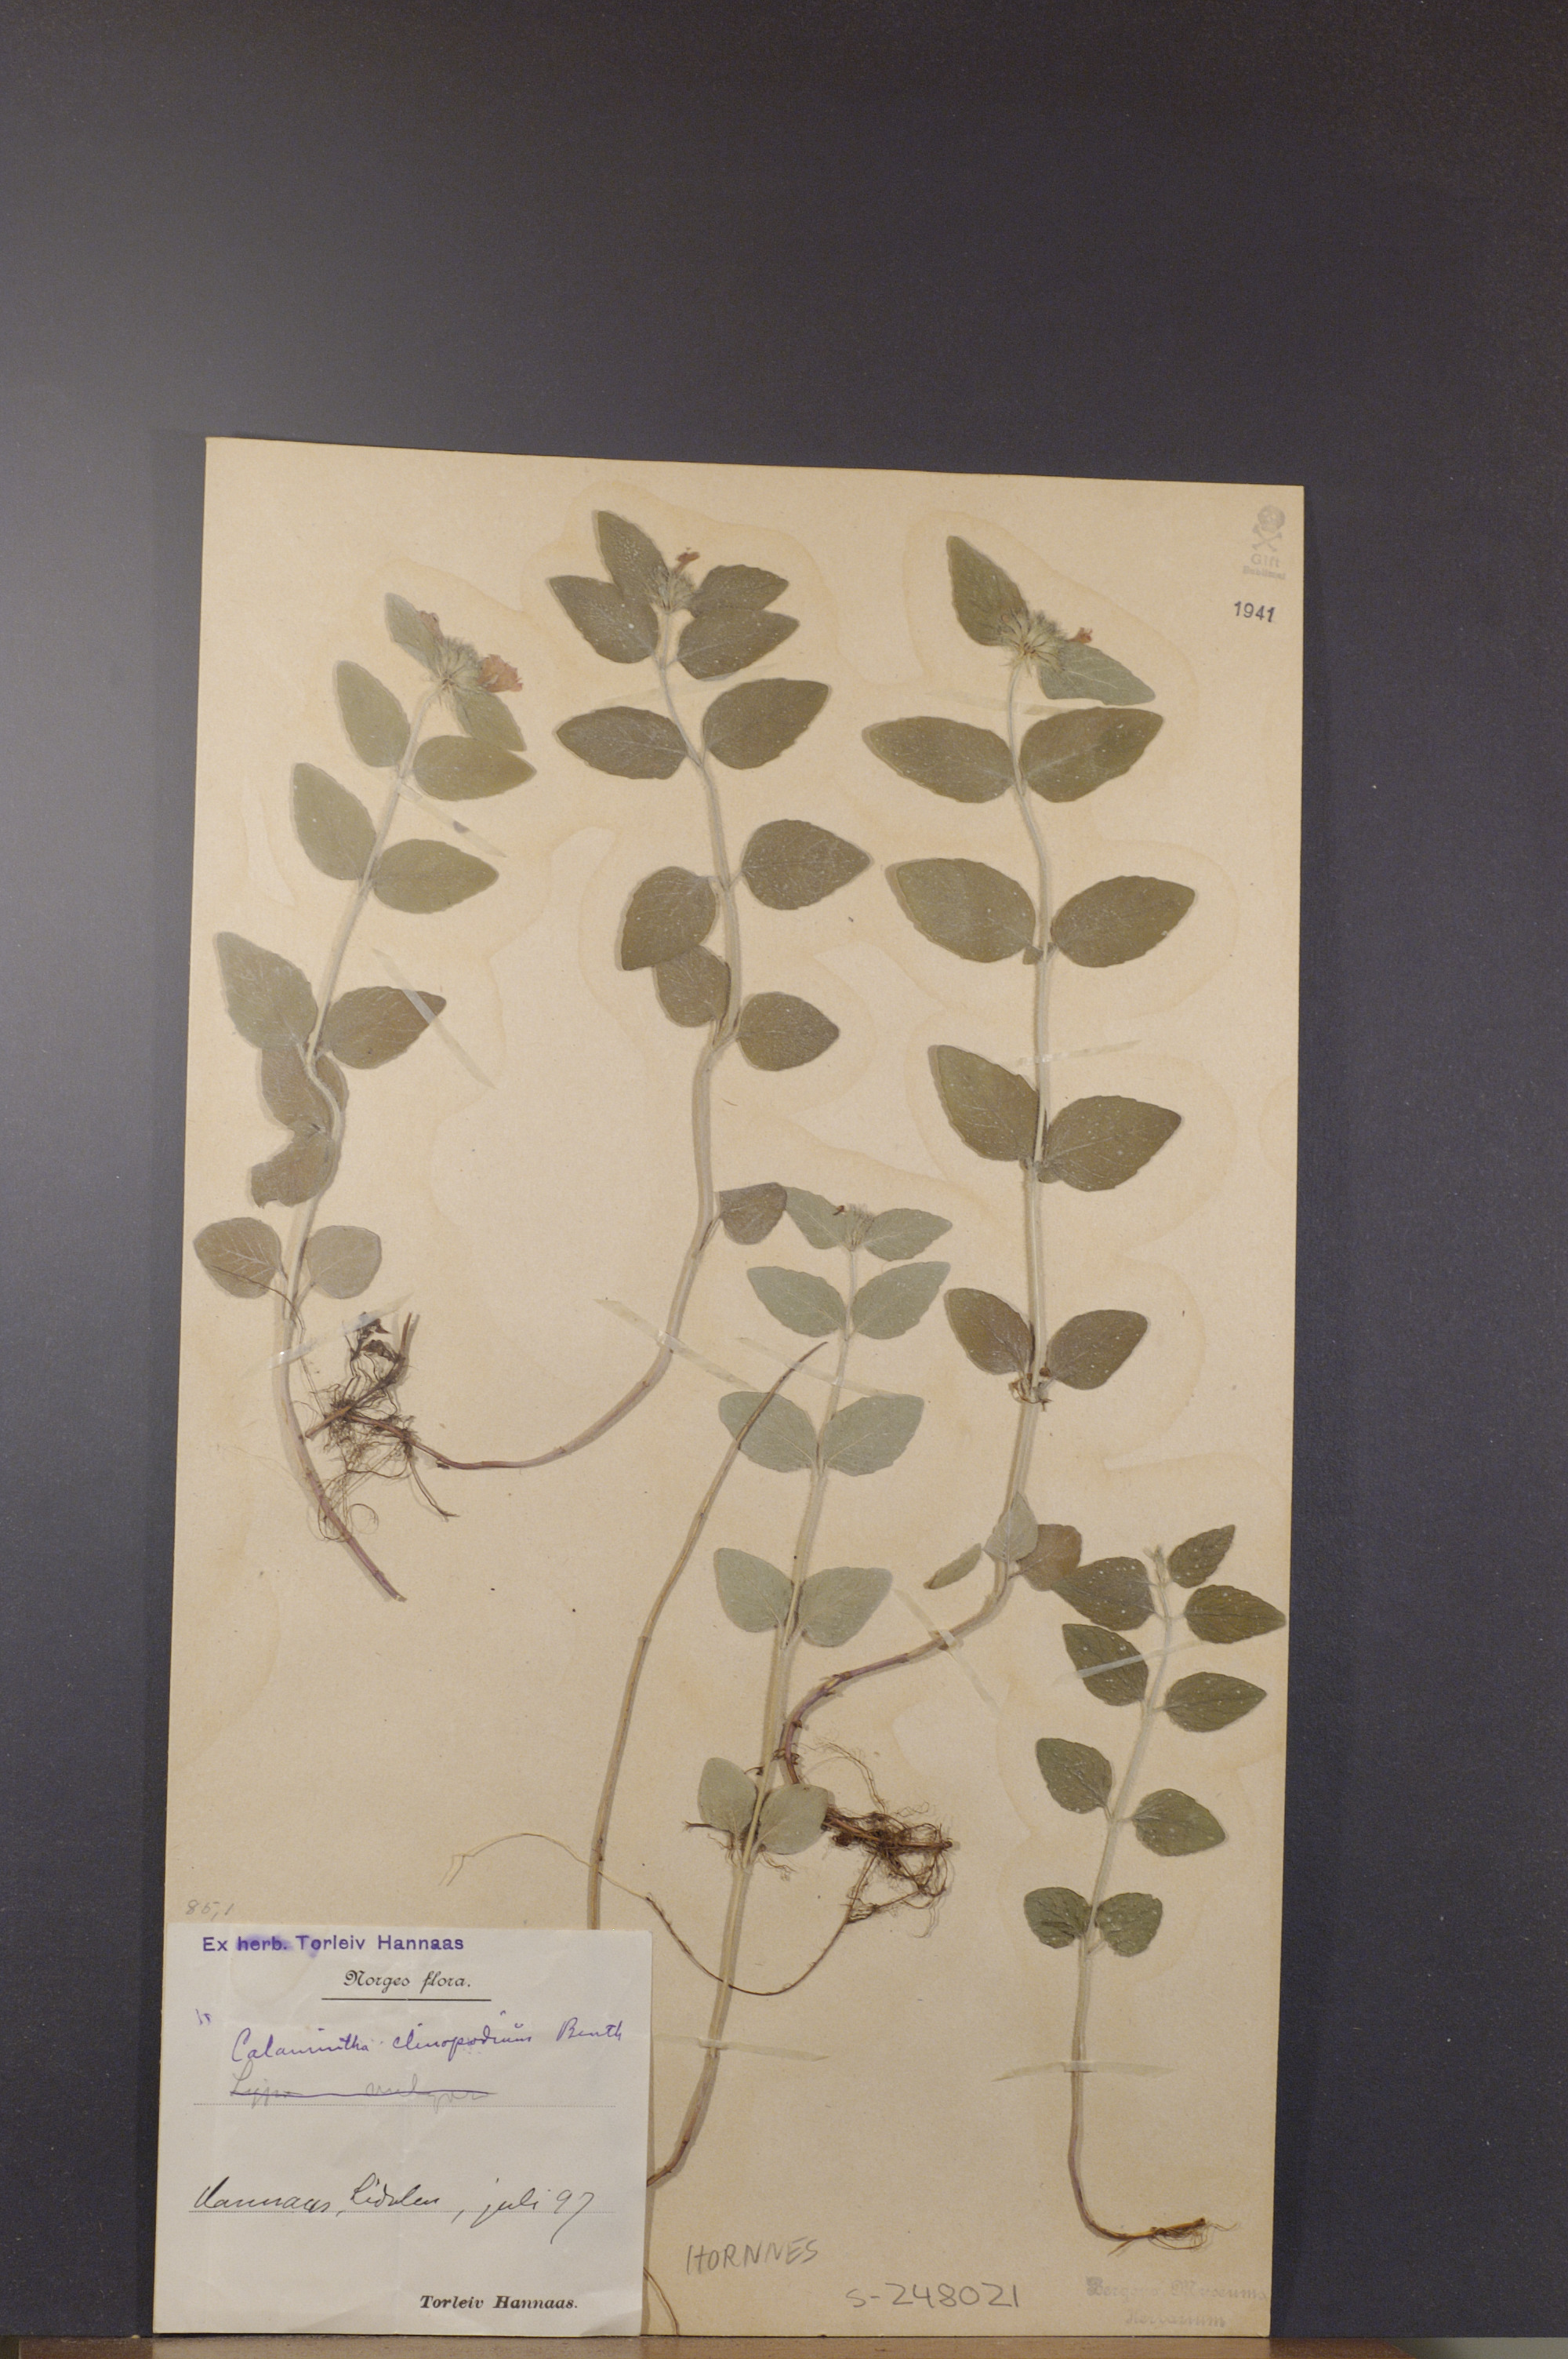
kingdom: Plantae
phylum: Tracheophyta
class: Magnoliopsida
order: Lamiales
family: Lamiaceae
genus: Clinopodium
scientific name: Clinopodium vulgare
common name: Wild basil
